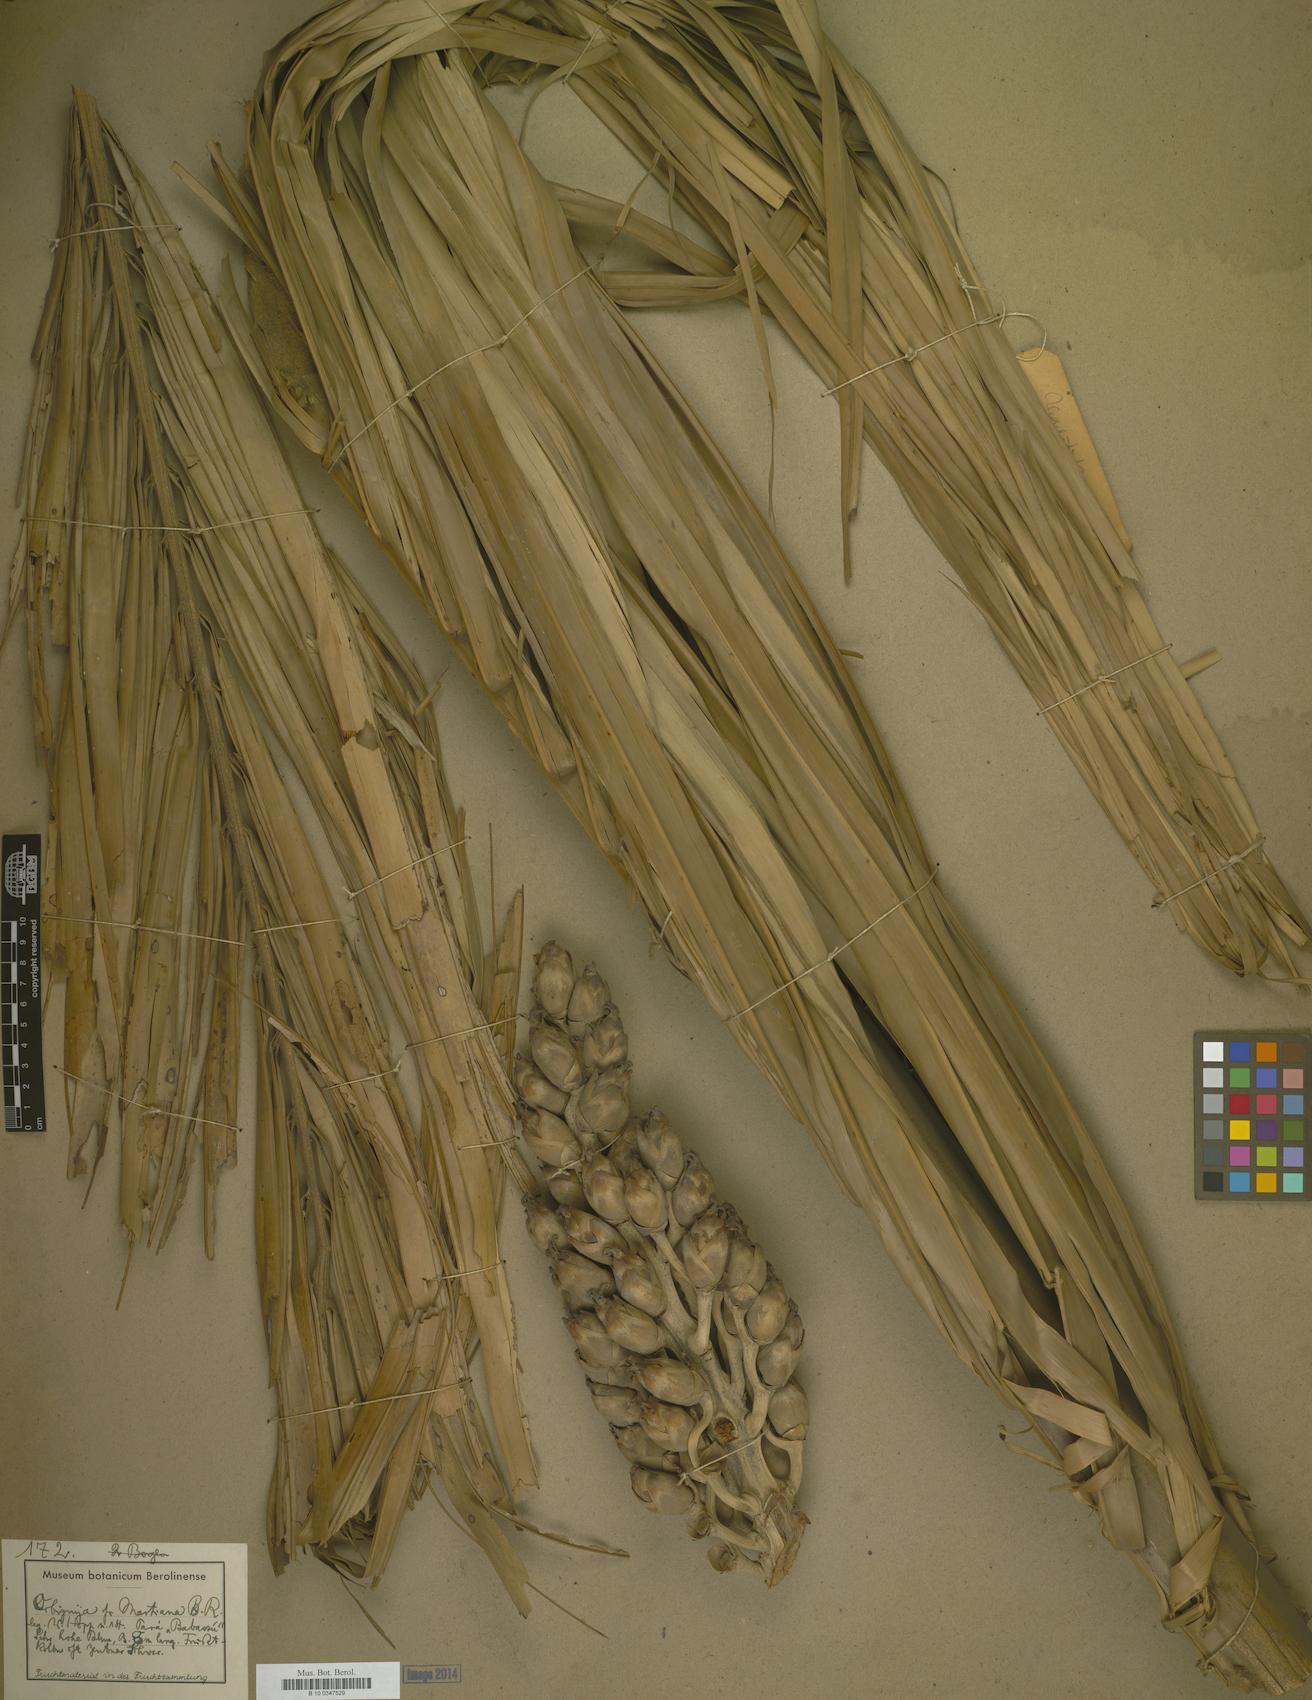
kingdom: Plantae
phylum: Tracheophyta
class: Liliopsida
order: Arecales
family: Arecaceae
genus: Attalea
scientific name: Attalea speciosa
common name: Babassu palm
